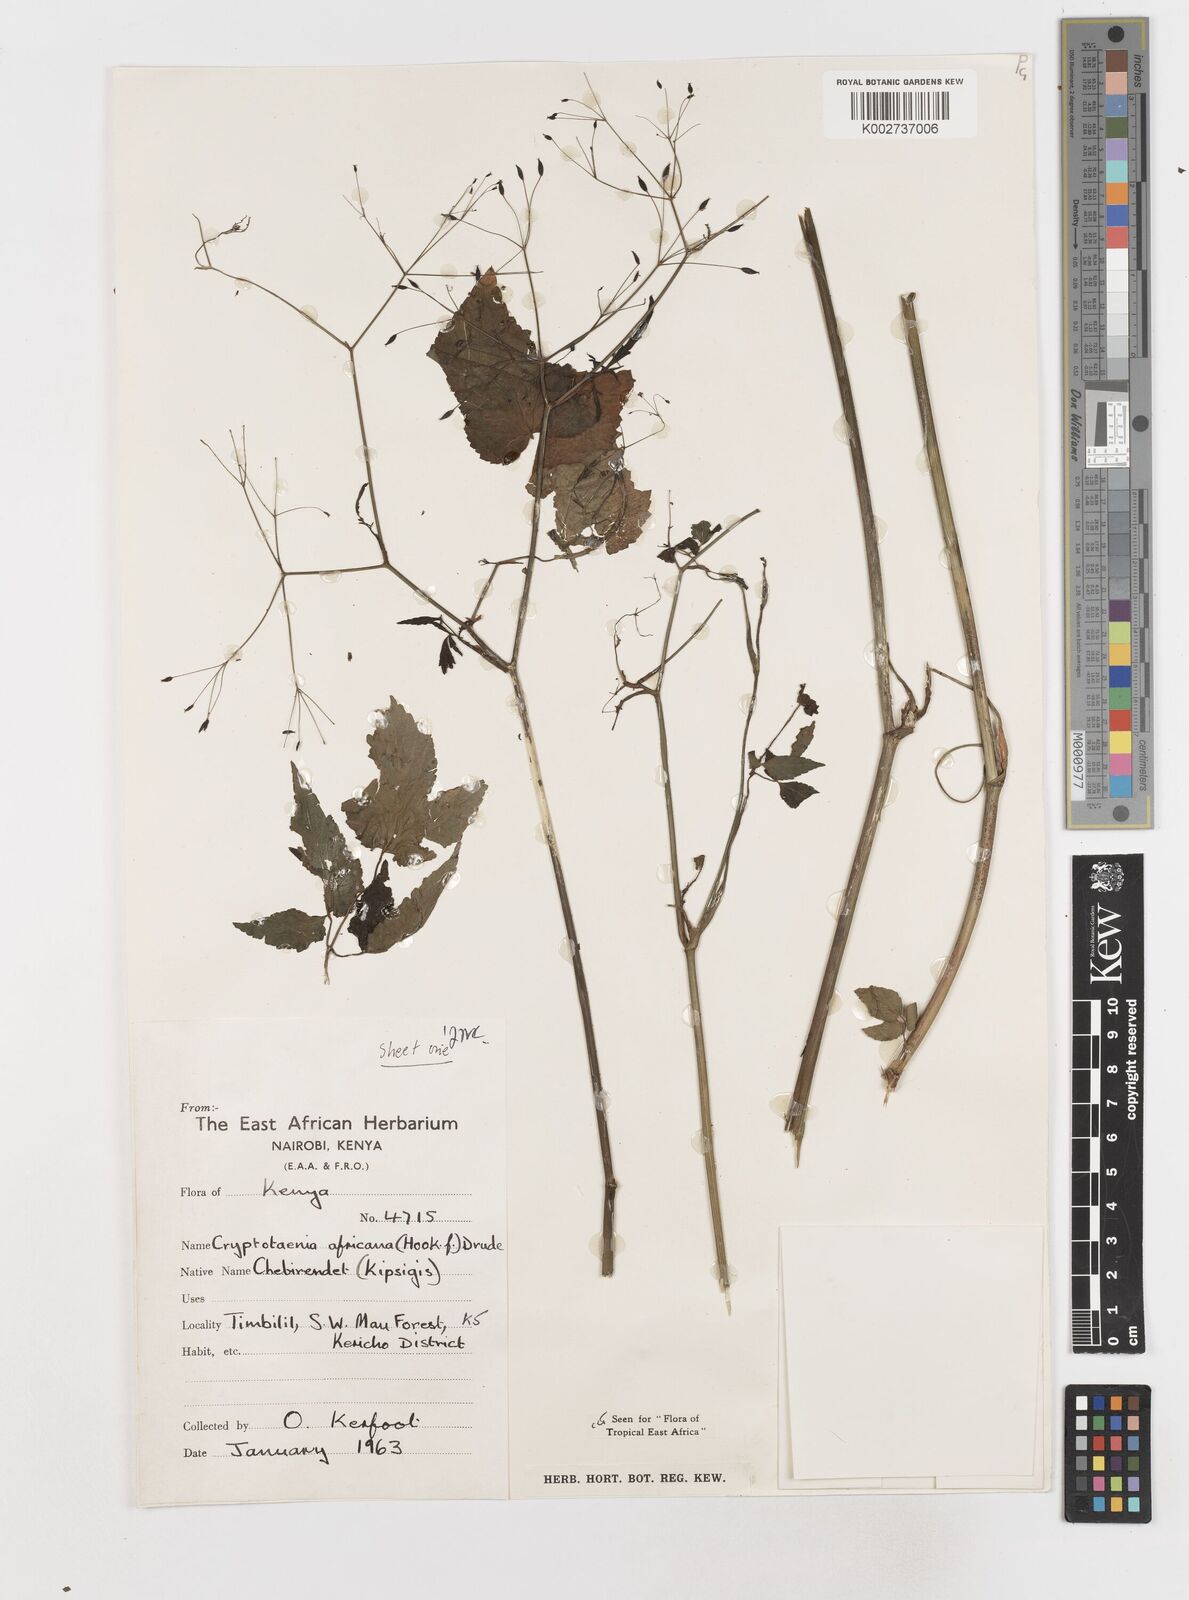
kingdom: Plantae
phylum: Tracheophyta
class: Magnoliopsida
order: Apiales
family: Apiaceae
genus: Cryptotaenia
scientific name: Cryptotaenia africana
